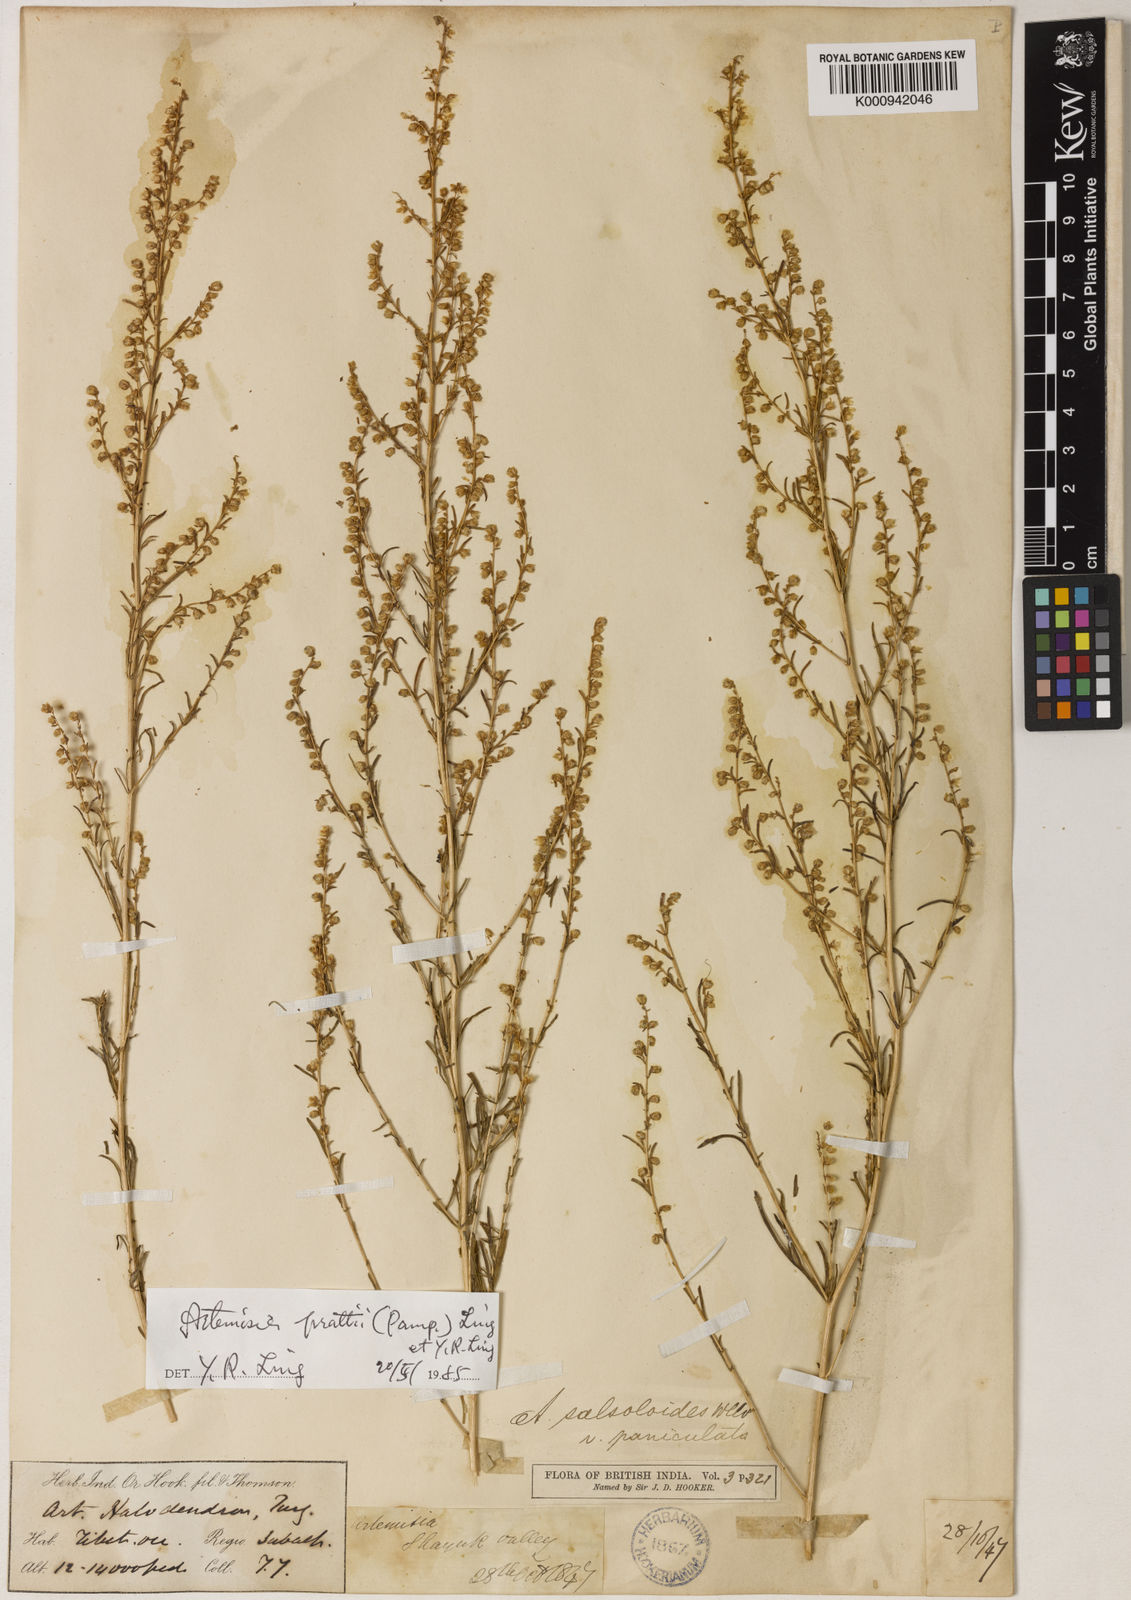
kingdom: Plantae
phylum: Tracheophyta
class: Magnoliopsida
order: Asterales
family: Asteraceae
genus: Artemisia
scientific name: Artemisia prattii
